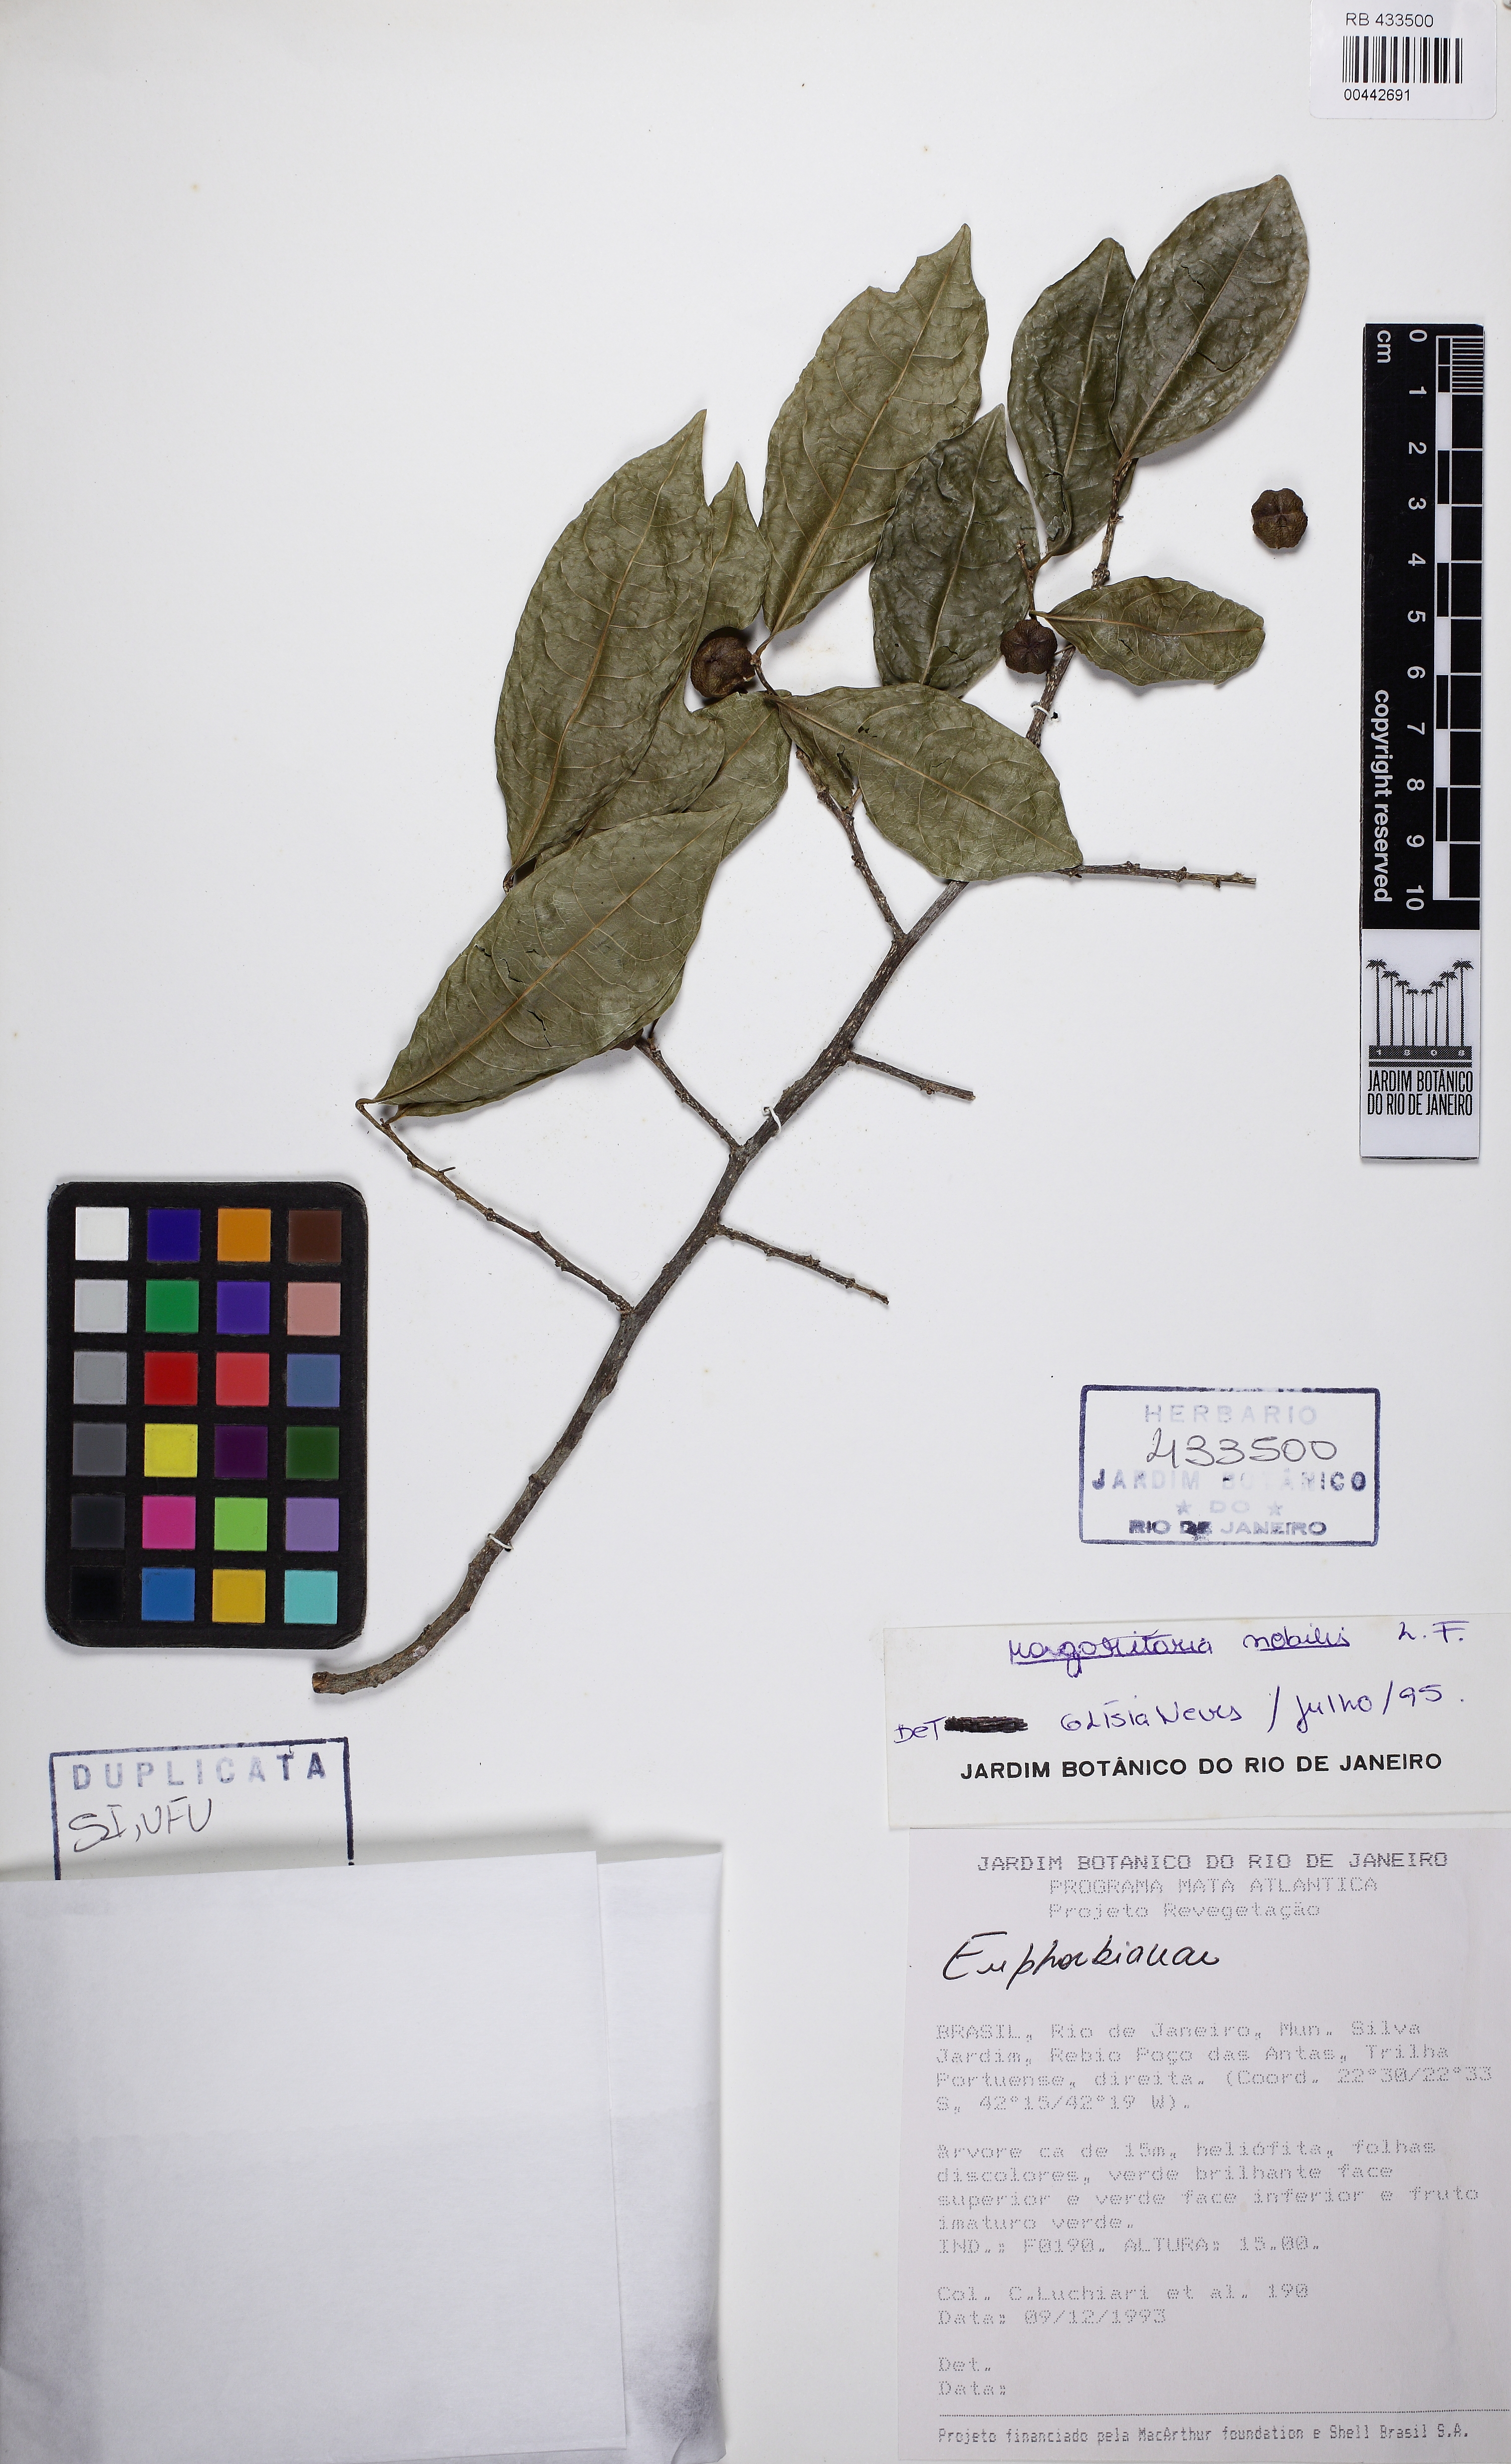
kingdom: Plantae
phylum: Tracheophyta
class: Magnoliopsida
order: Malpighiales
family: Phyllanthaceae
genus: Margaritaria
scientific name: Margaritaria nobilis
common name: Goose berry
